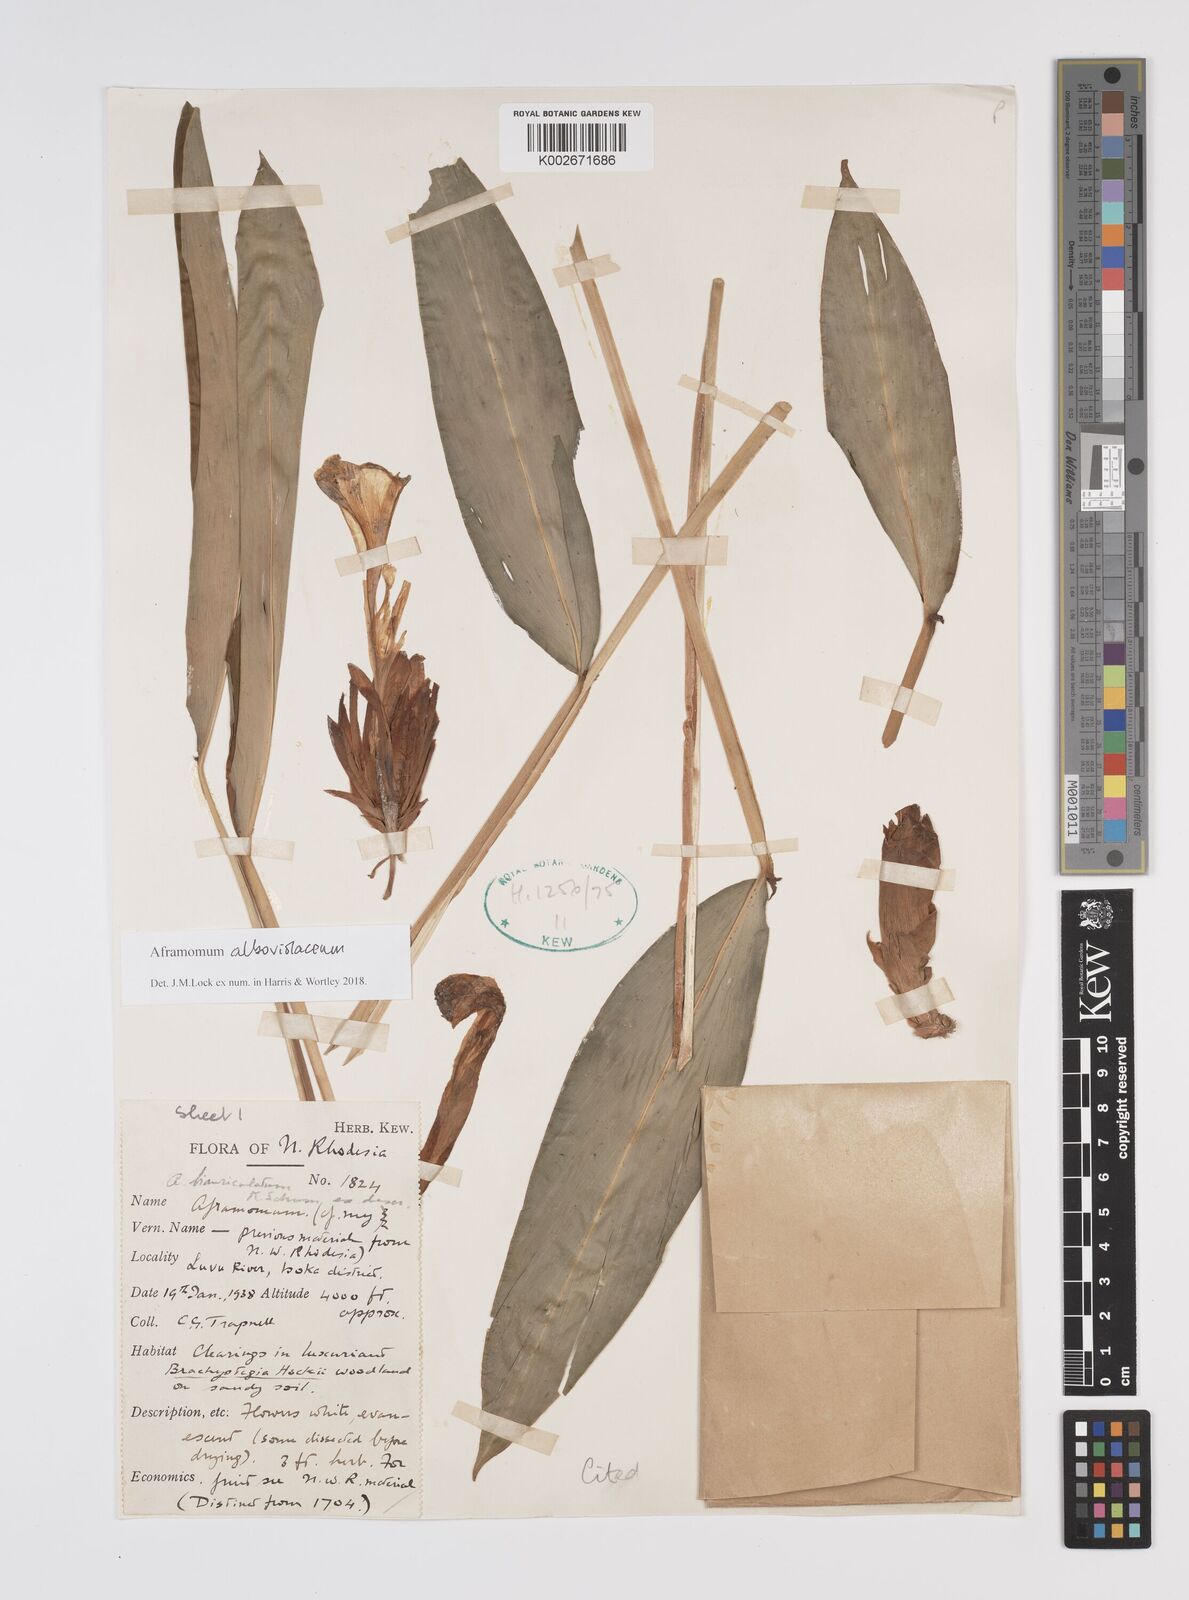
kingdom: Plantae
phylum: Tracheophyta
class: Liliopsida
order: Zingiberales
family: Zingiberaceae
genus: Aframomum
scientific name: Aframomum alboviolaceum
